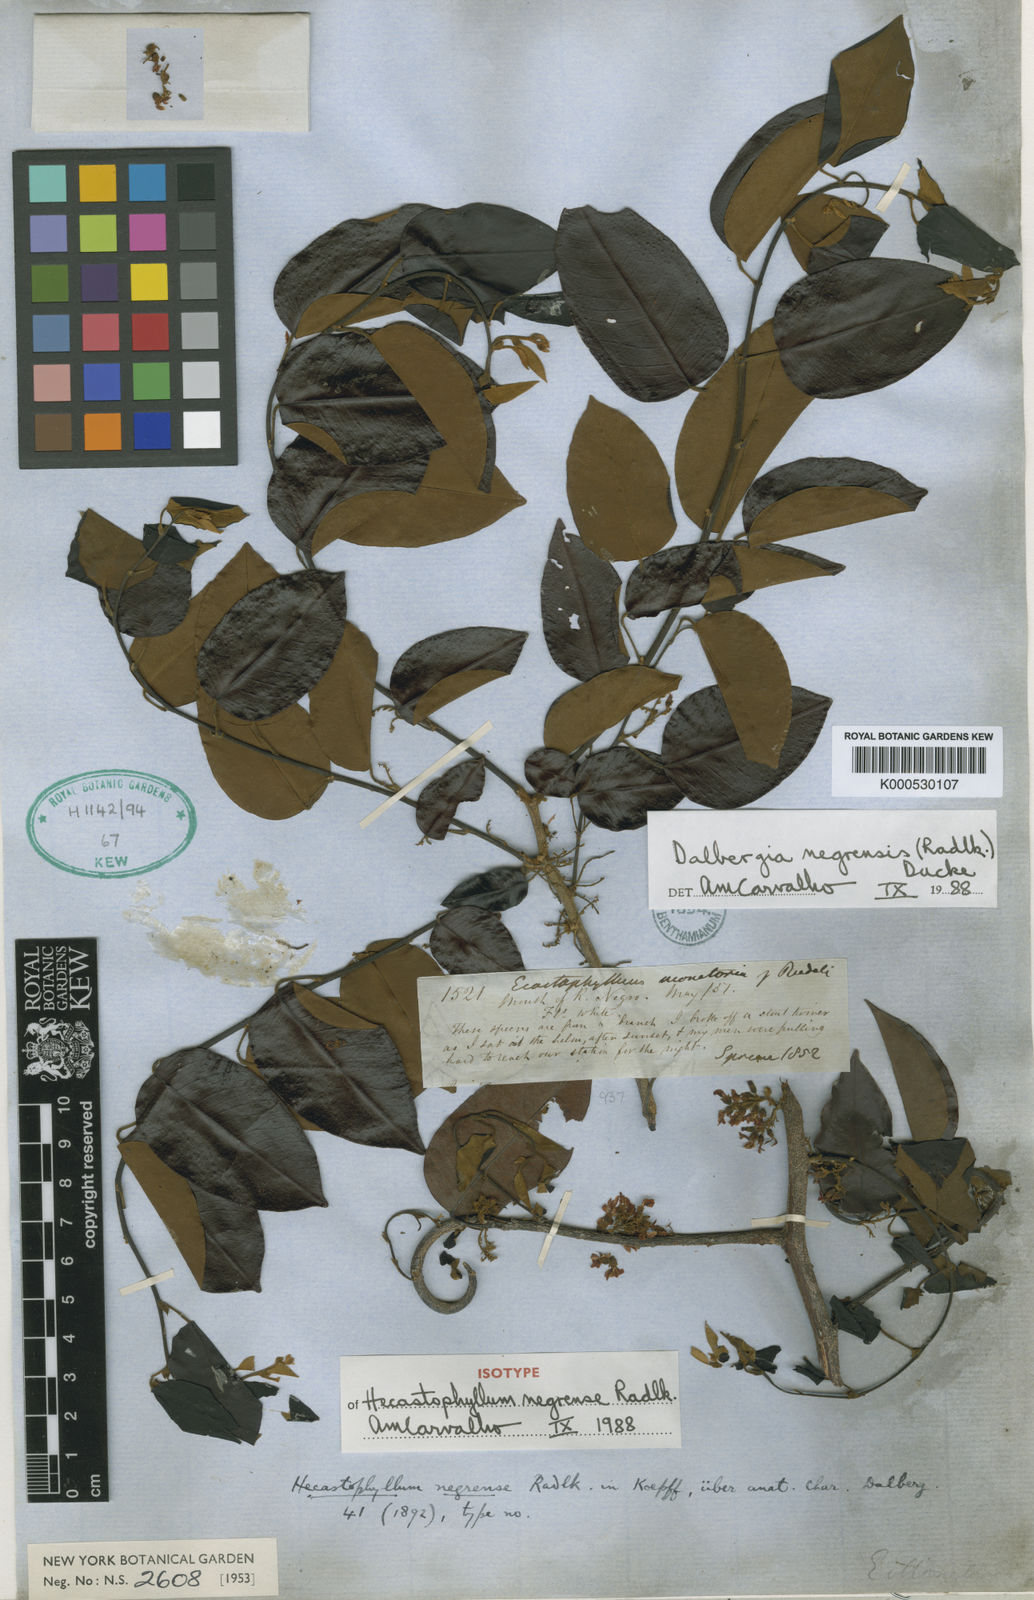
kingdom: Plantae
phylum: Tracheophyta
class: Magnoliopsida
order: Fabales
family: Fabaceae
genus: Dalbergia
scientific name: Dalbergia negrensis
